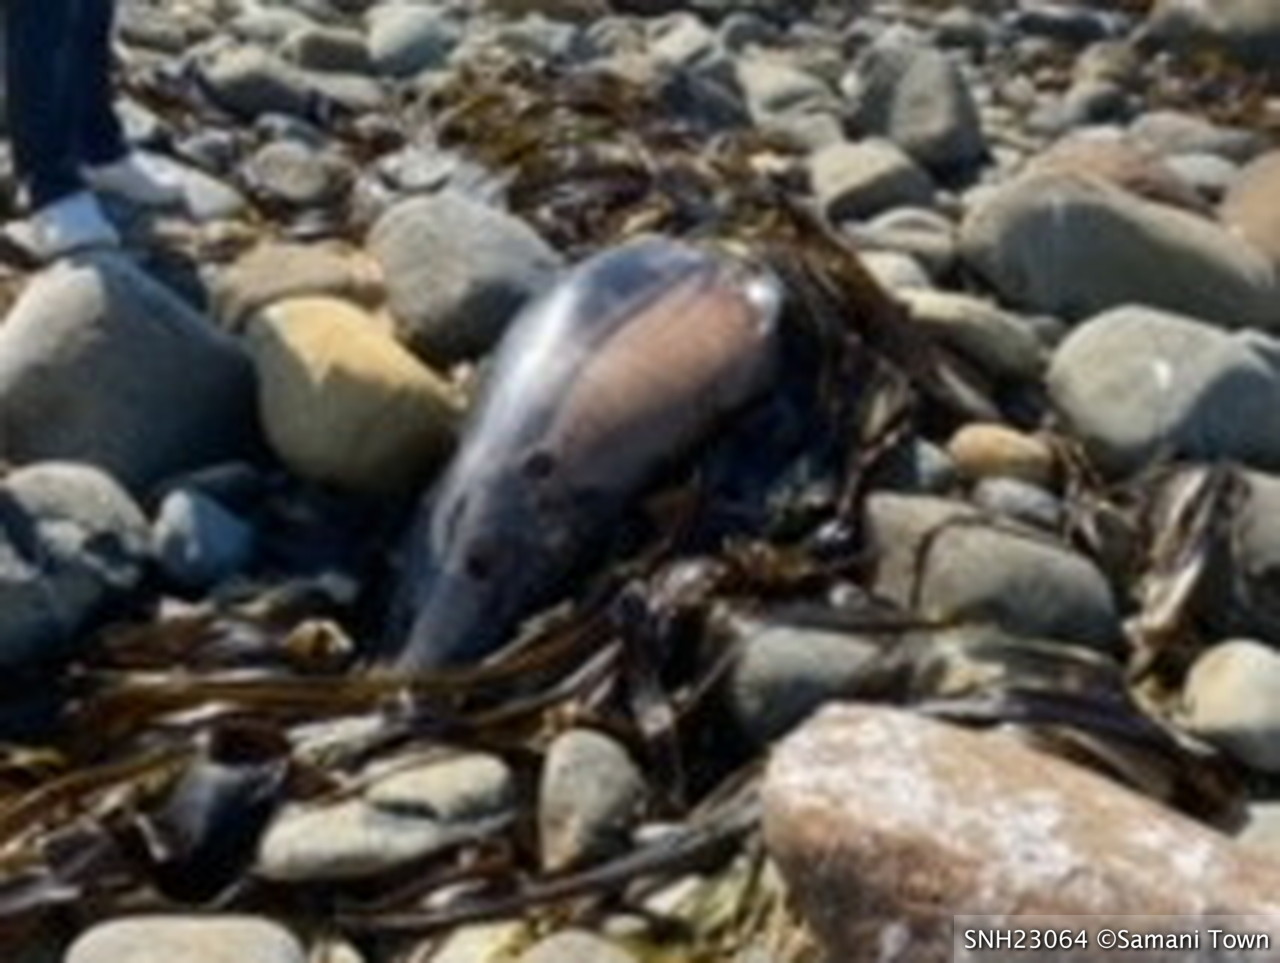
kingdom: Animalia
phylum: Chordata
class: Mammalia
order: Cetacea
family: Delphinidae
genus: Stenella
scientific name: Stenella coeruleoalba
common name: Striped dolphin
